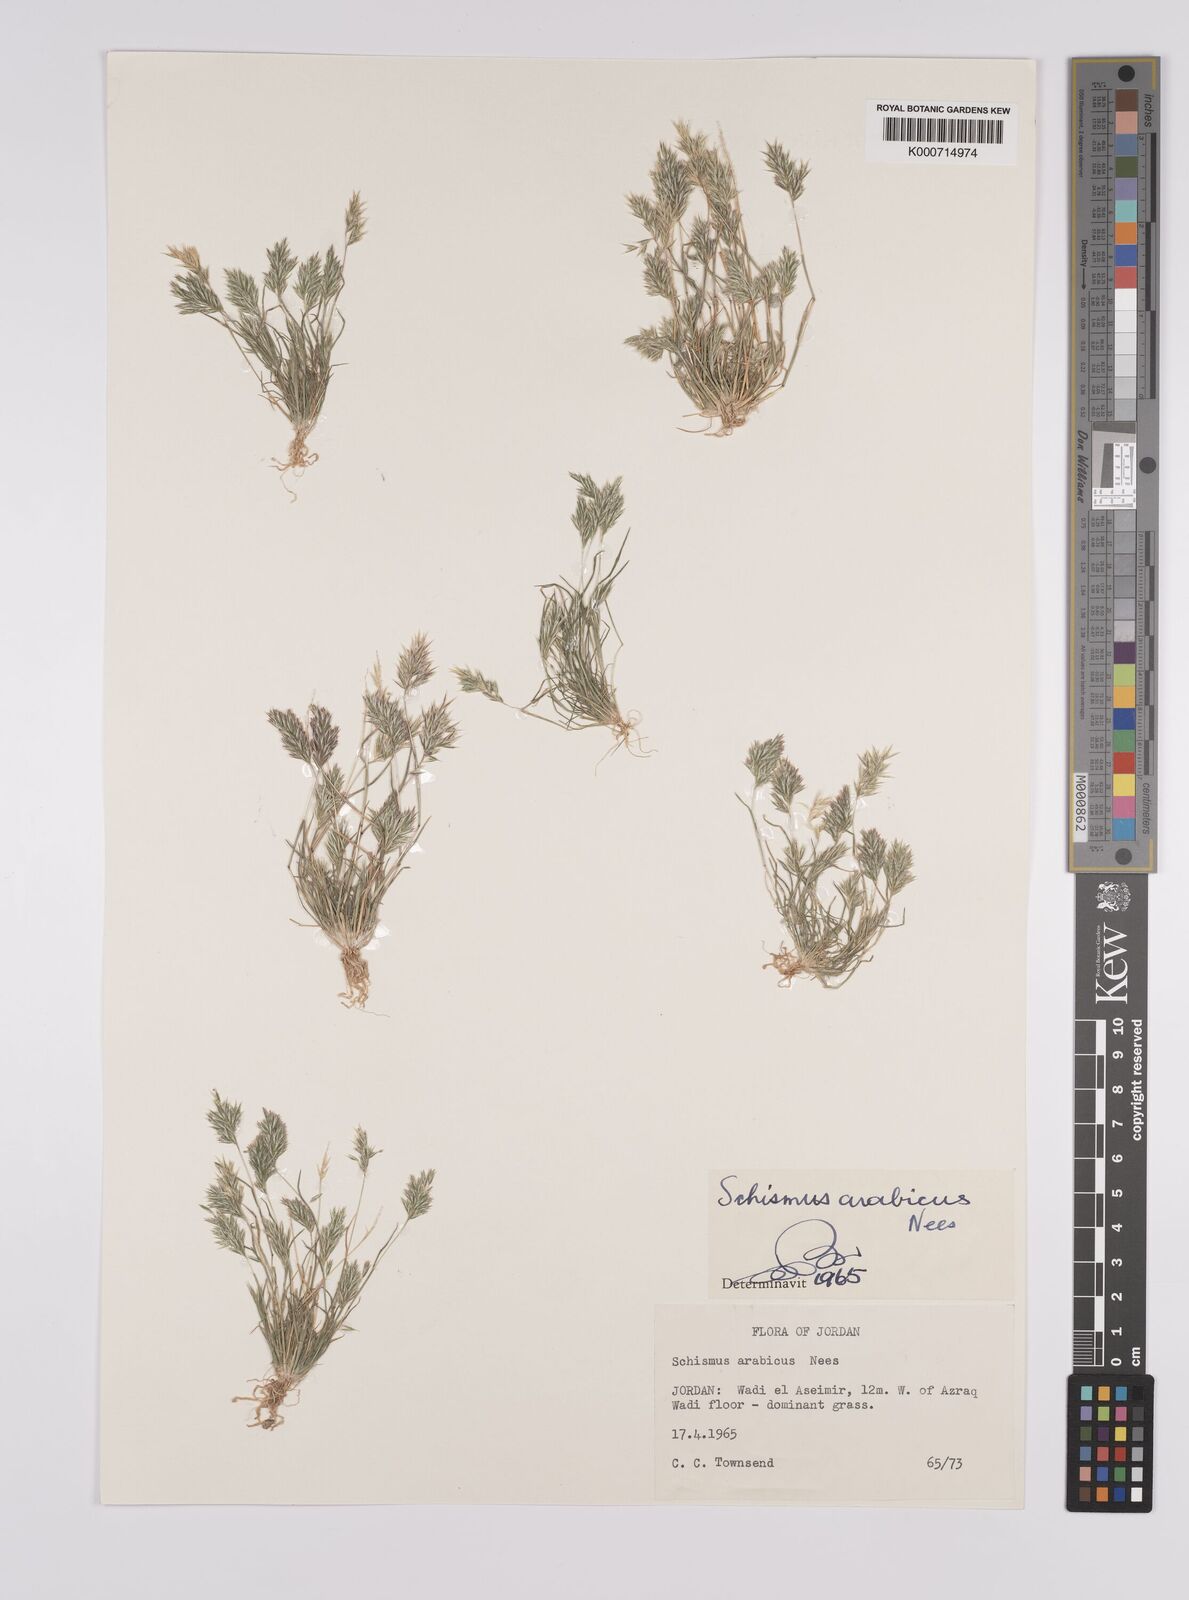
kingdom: Plantae
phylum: Tracheophyta
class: Liliopsida
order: Poales
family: Poaceae
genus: Schismus
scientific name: Schismus arabicus
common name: Arabian schismus
